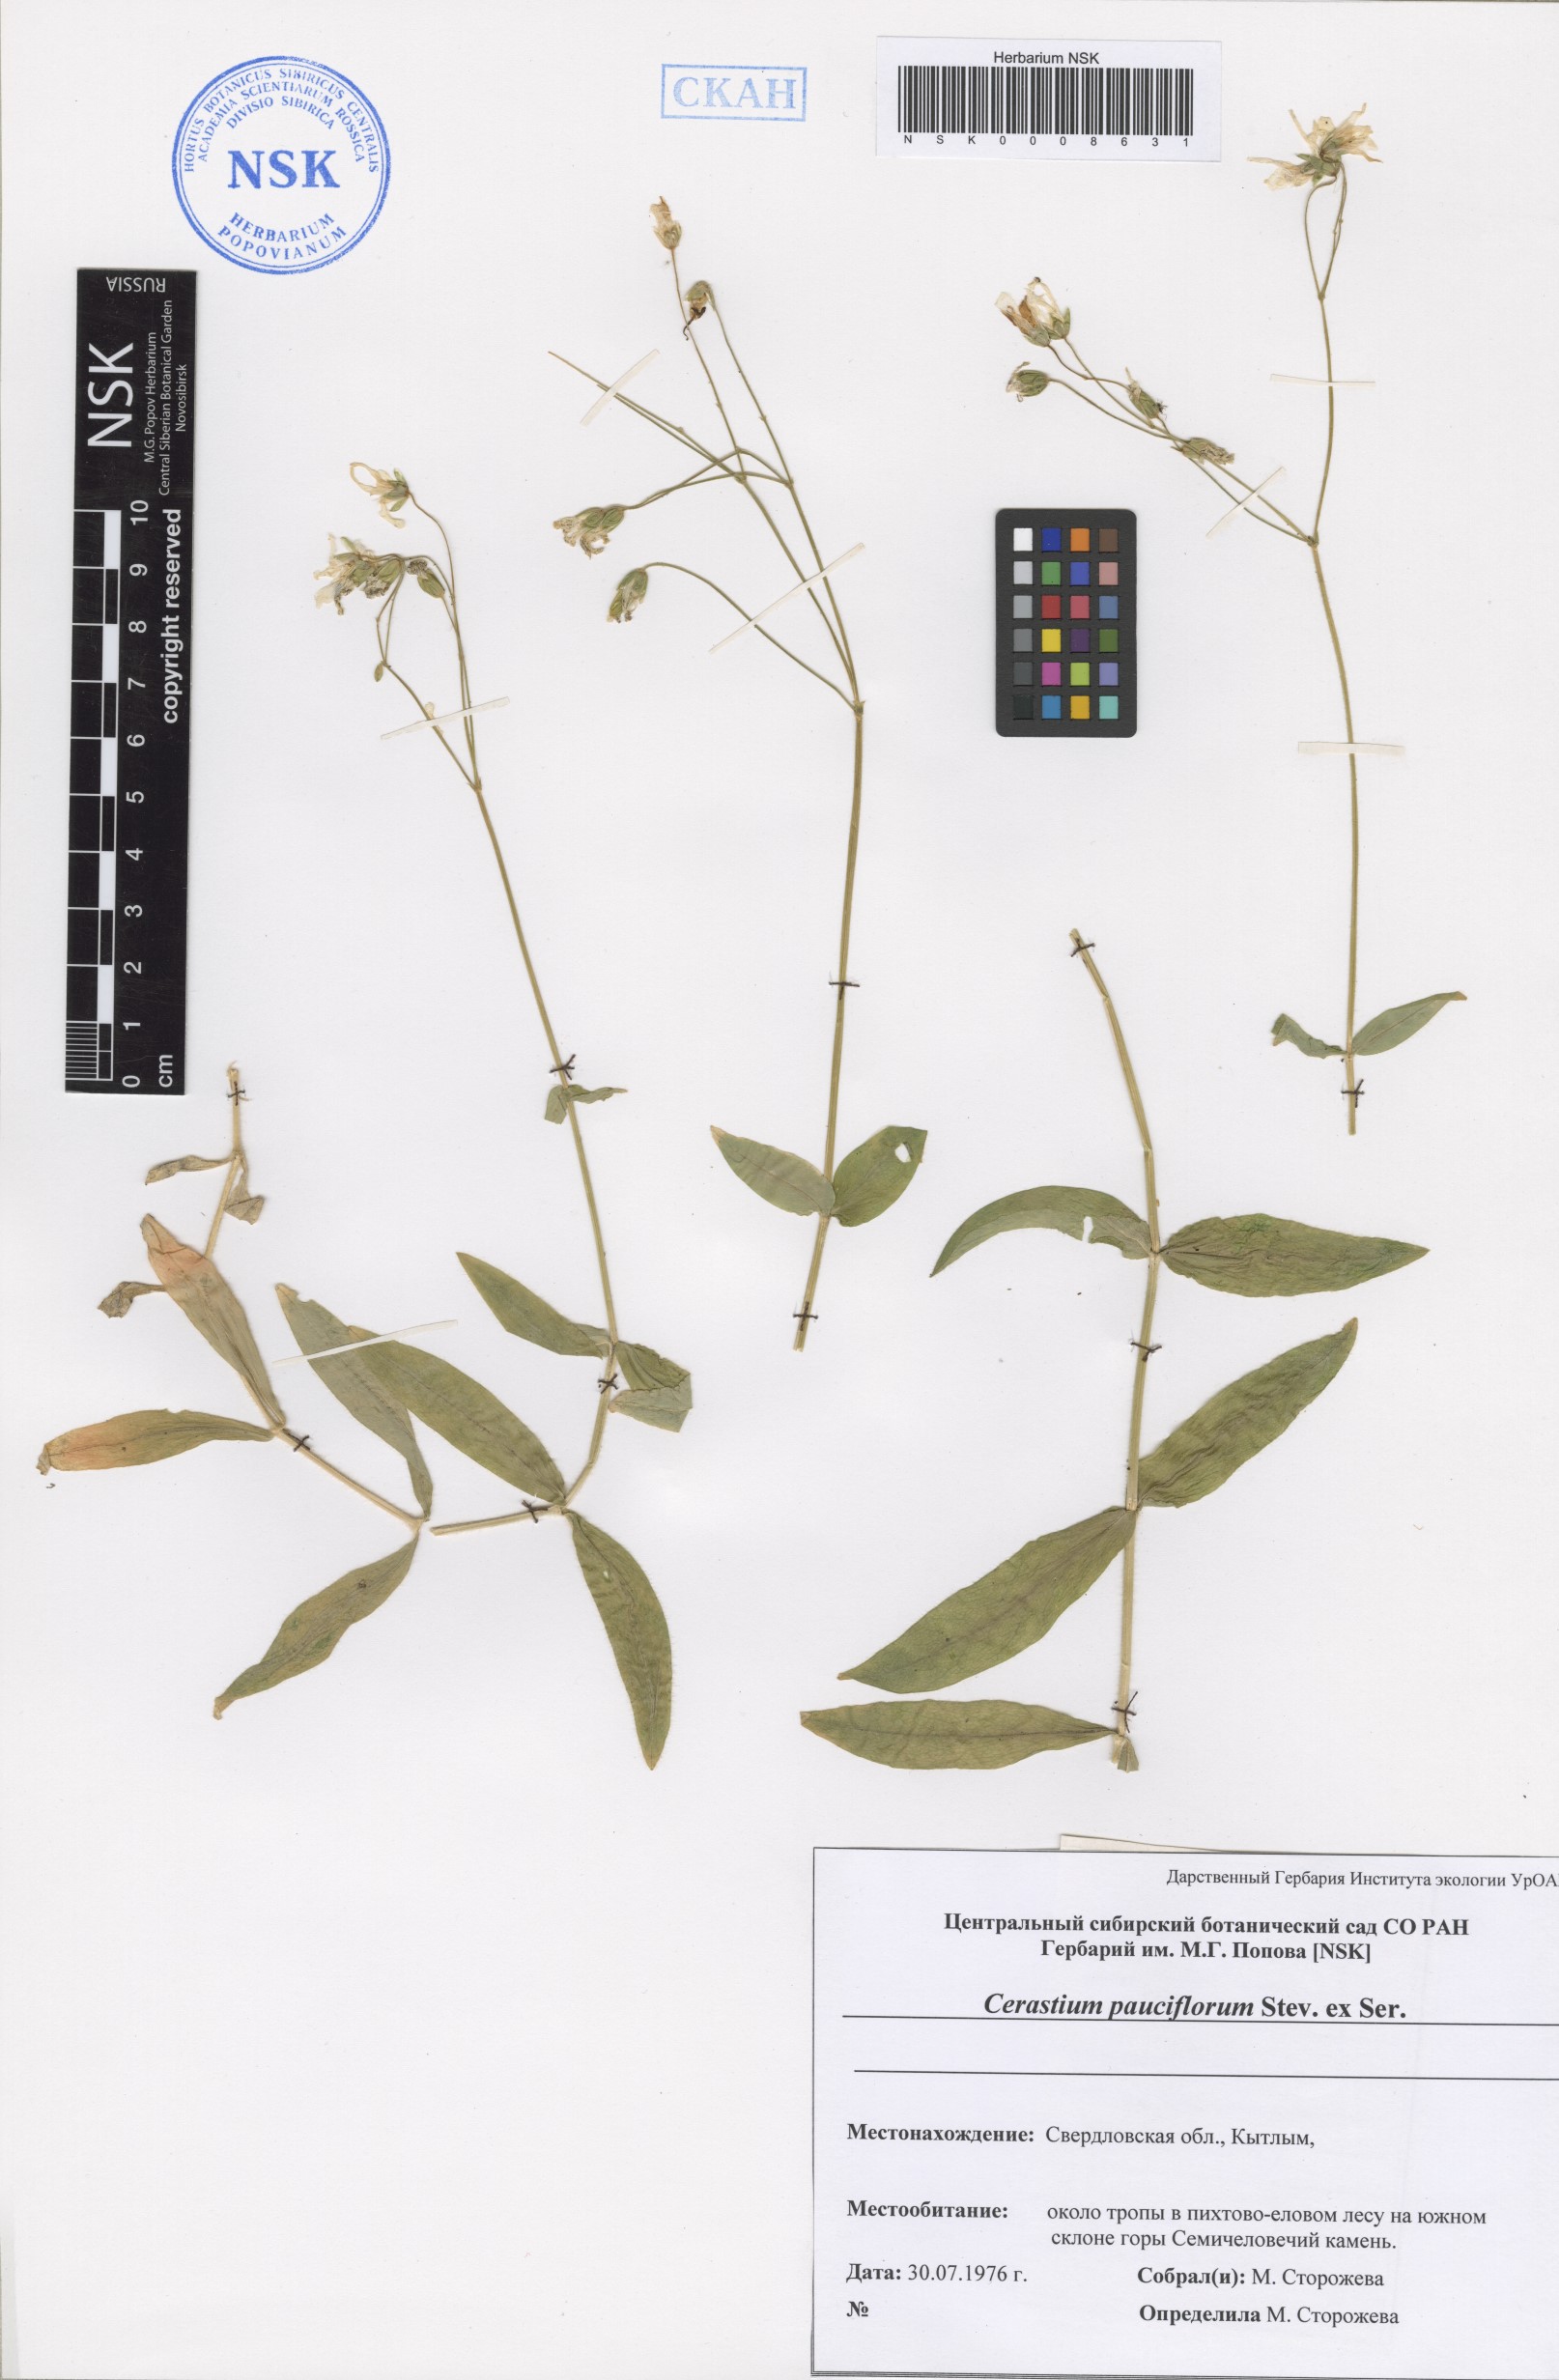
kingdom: Plantae
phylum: Tracheophyta
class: Magnoliopsida
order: Caryophyllales
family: Caryophyllaceae
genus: Cerastium
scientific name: Cerastium pauciflorum
